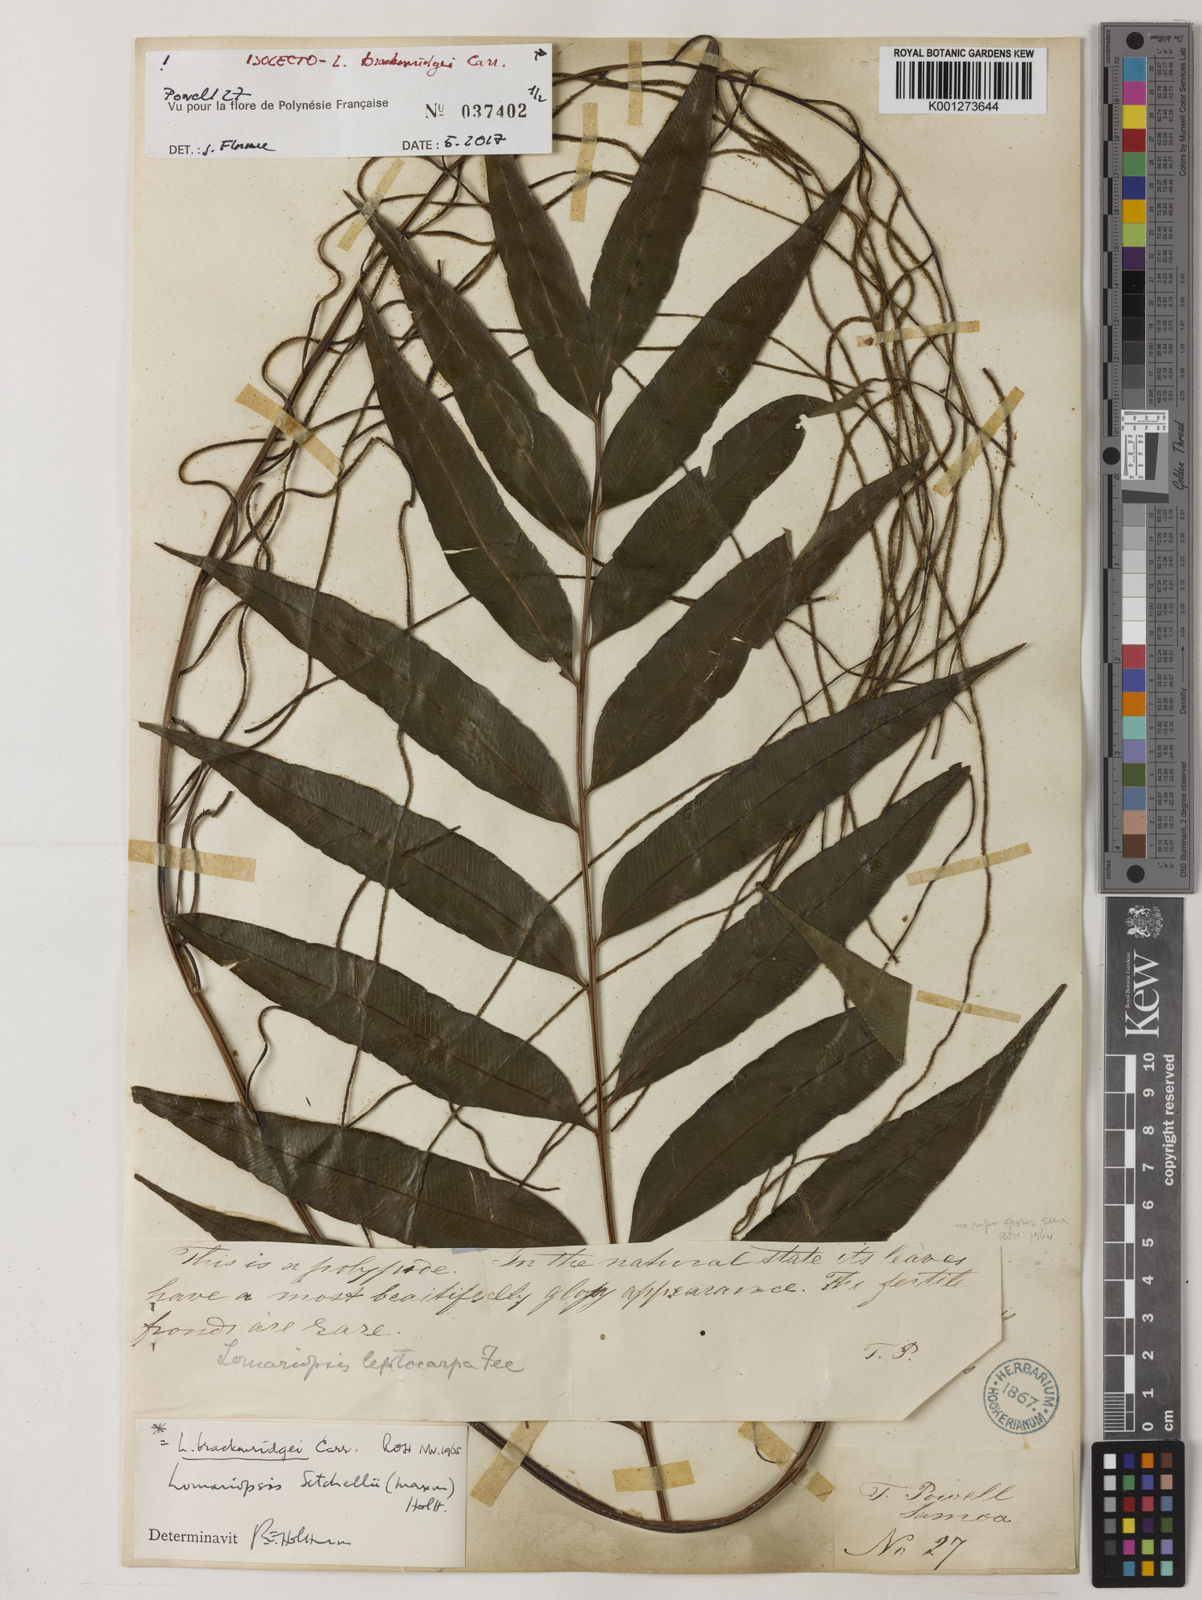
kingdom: Plantae
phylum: Tracheophyta
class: Polypodiopsida
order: Polypodiales
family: Lomariopsidaceae
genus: Lomariopsis
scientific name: Lomariopsis brackenridgei
